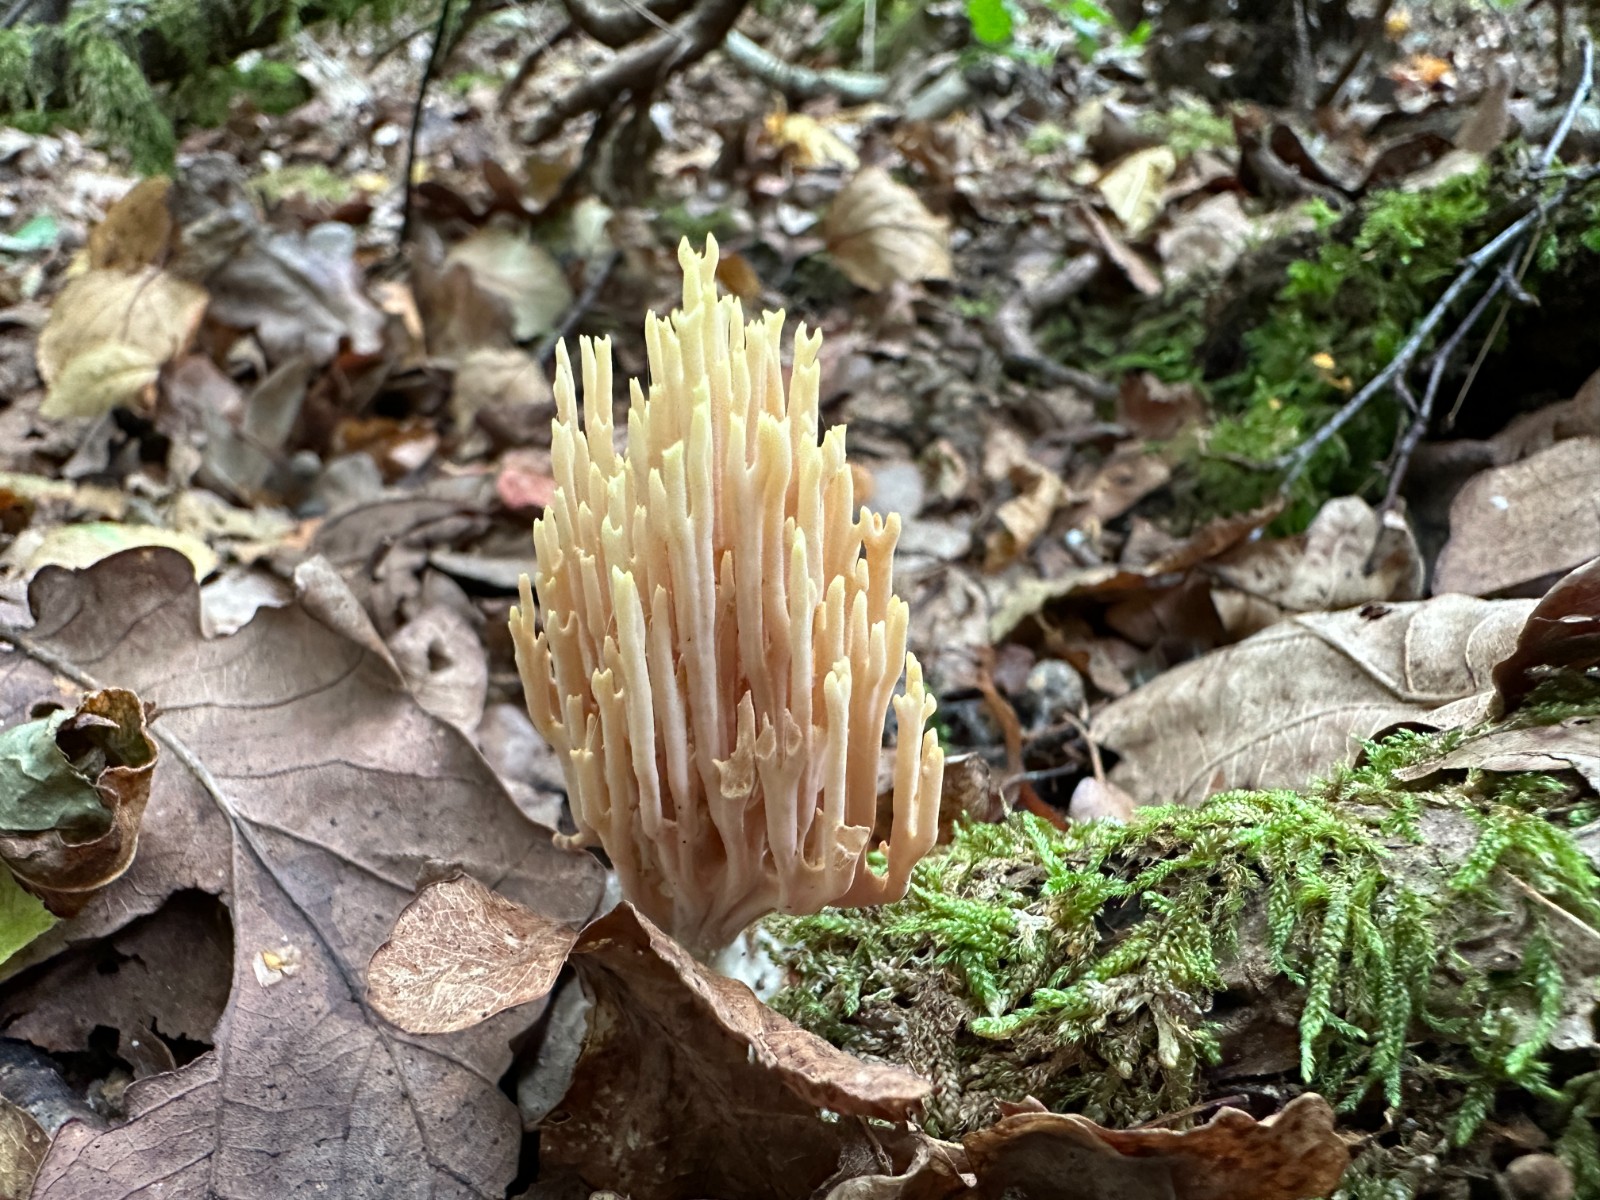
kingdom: Fungi
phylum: Basidiomycota
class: Agaricomycetes
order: Gomphales
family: Gomphaceae
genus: Ramaria
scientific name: Ramaria stricta
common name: rank koralsvamp
